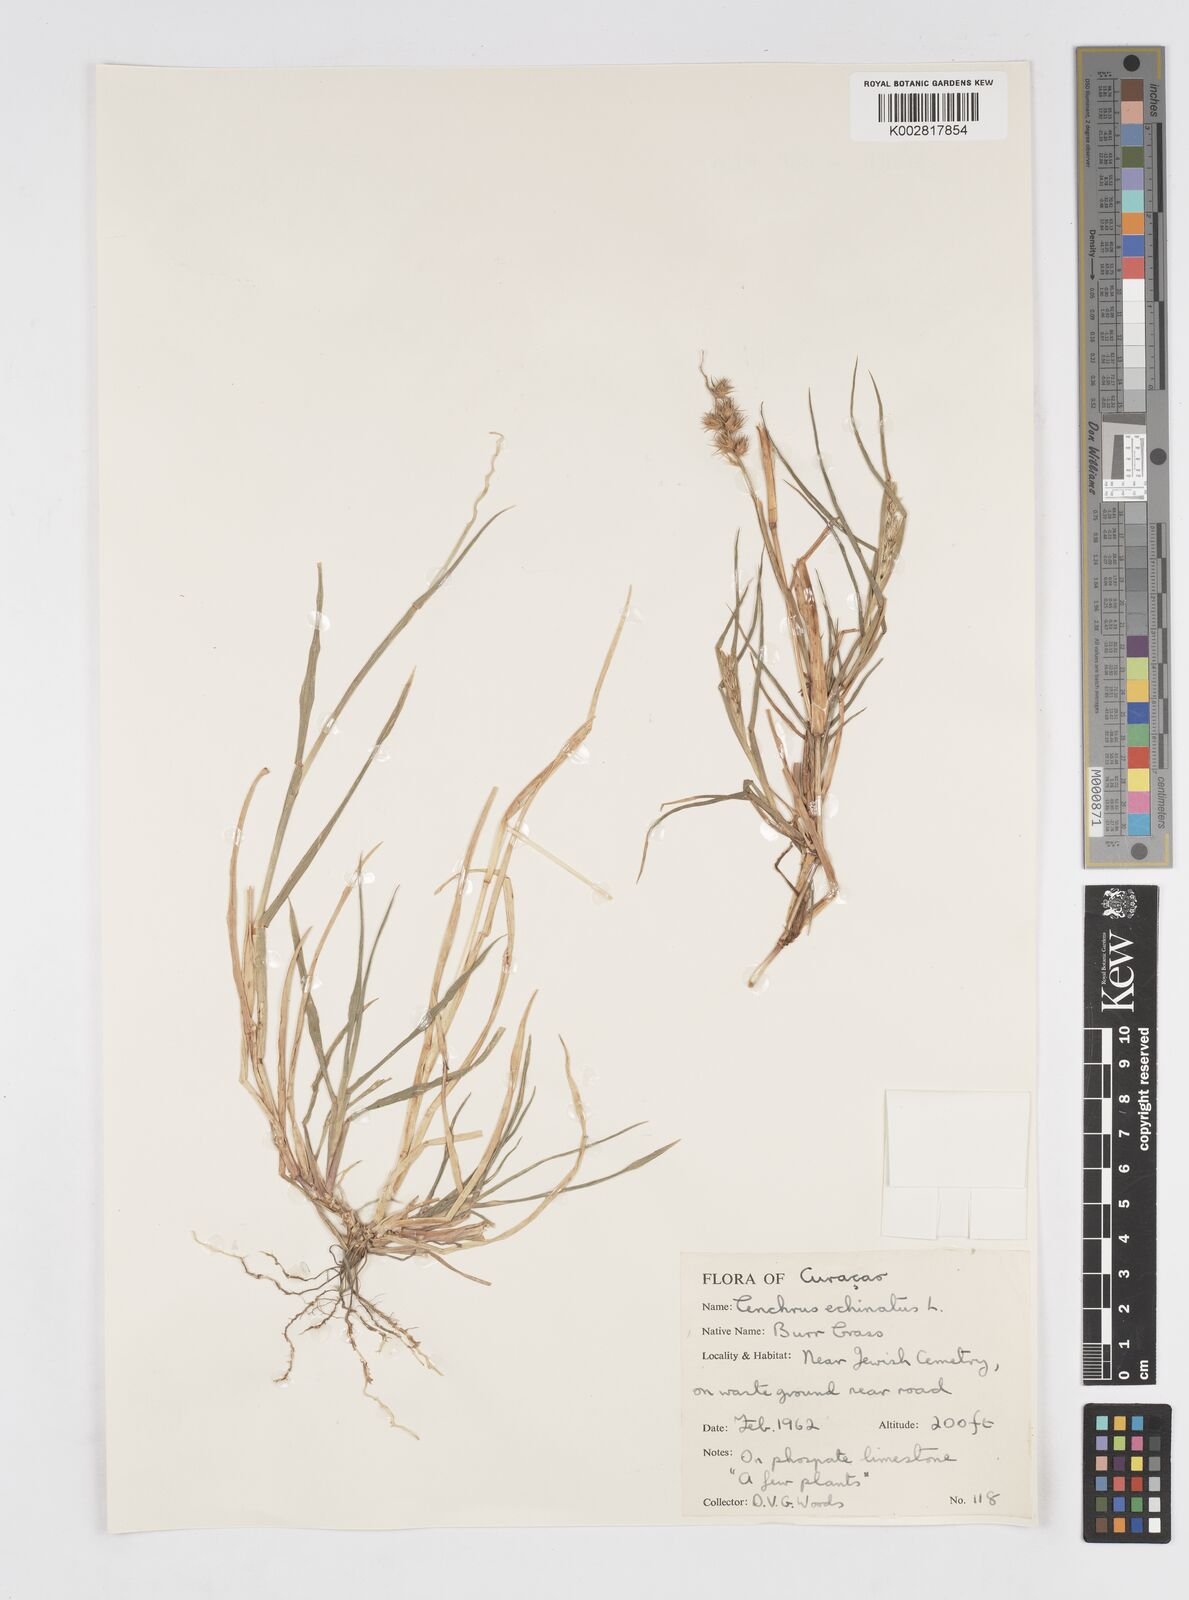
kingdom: Plantae
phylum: Tracheophyta
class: Liliopsida
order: Poales
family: Poaceae
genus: Cenchrus
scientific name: Cenchrus
